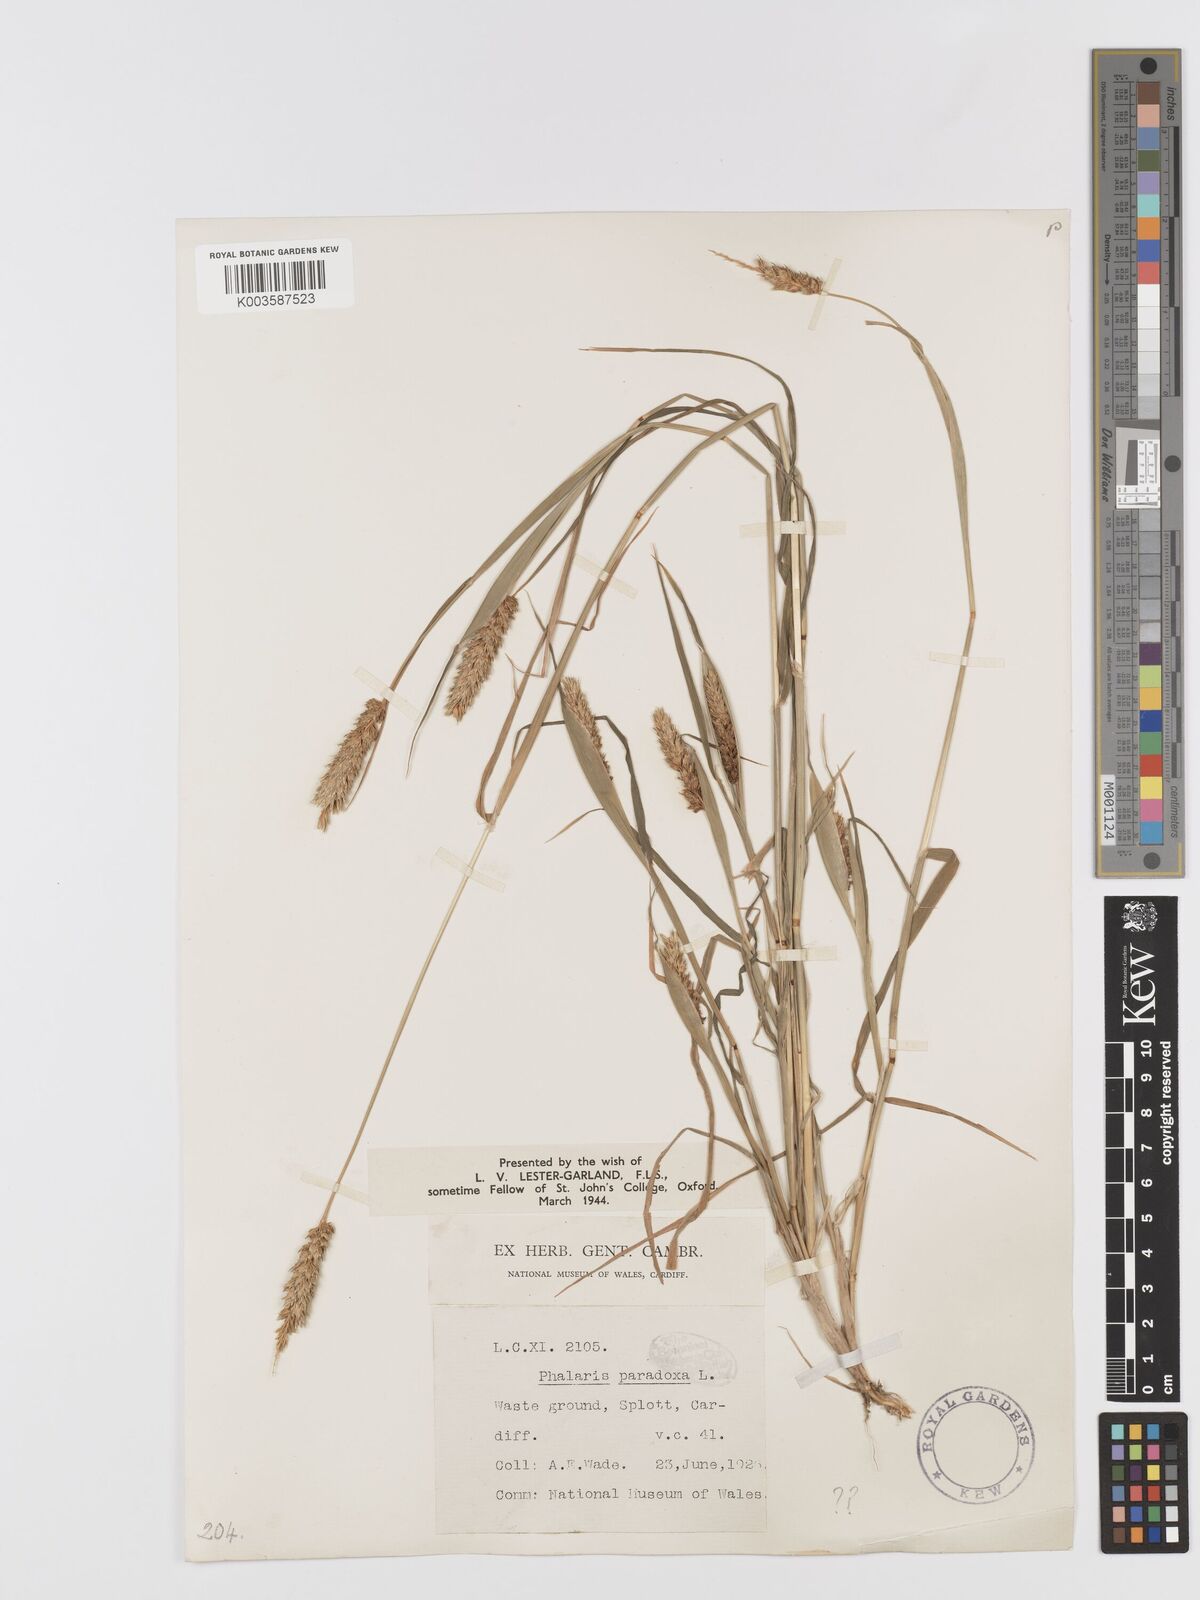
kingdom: Plantae
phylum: Tracheophyta
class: Liliopsida
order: Poales
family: Poaceae
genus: Phalaris
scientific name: Phalaris paradoxa
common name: Awned canary-grass
